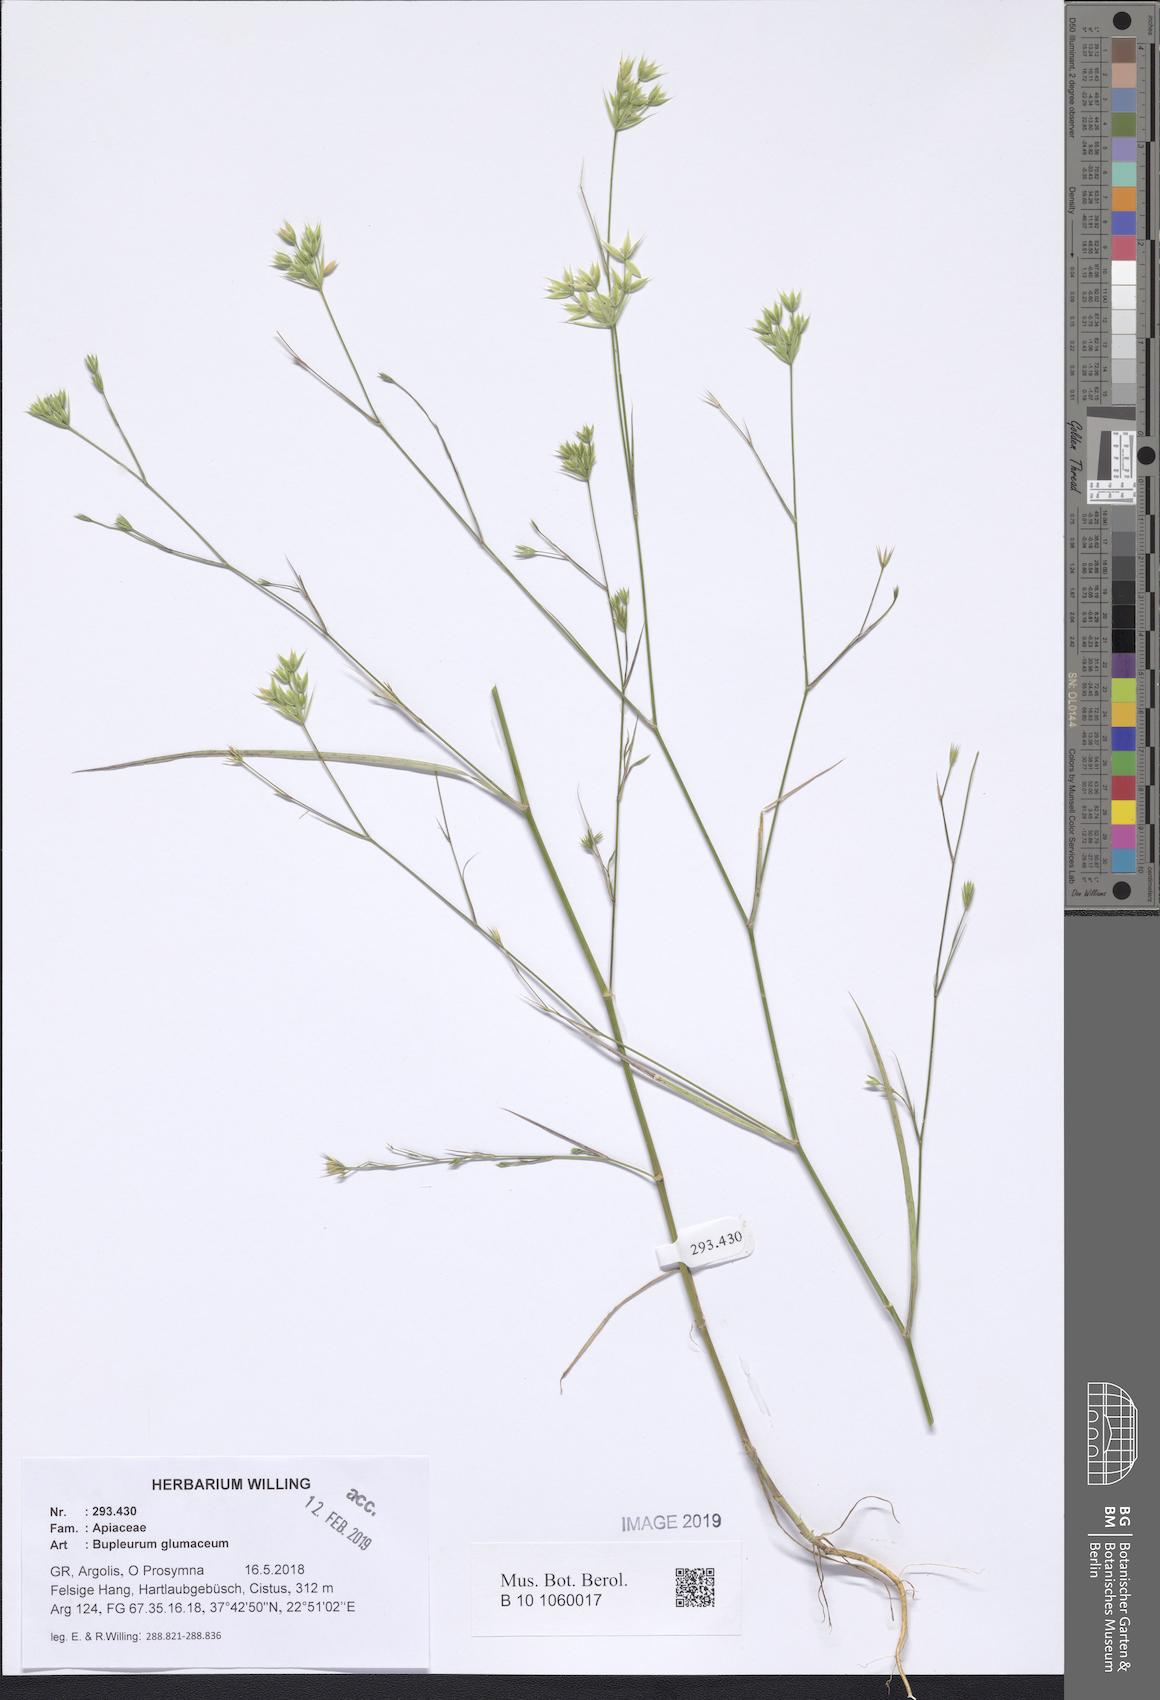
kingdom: Plantae
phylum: Tracheophyta
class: Magnoliopsida
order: Apiales
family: Apiaceae
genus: Bupleurum
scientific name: Bupleurum glumaceum
